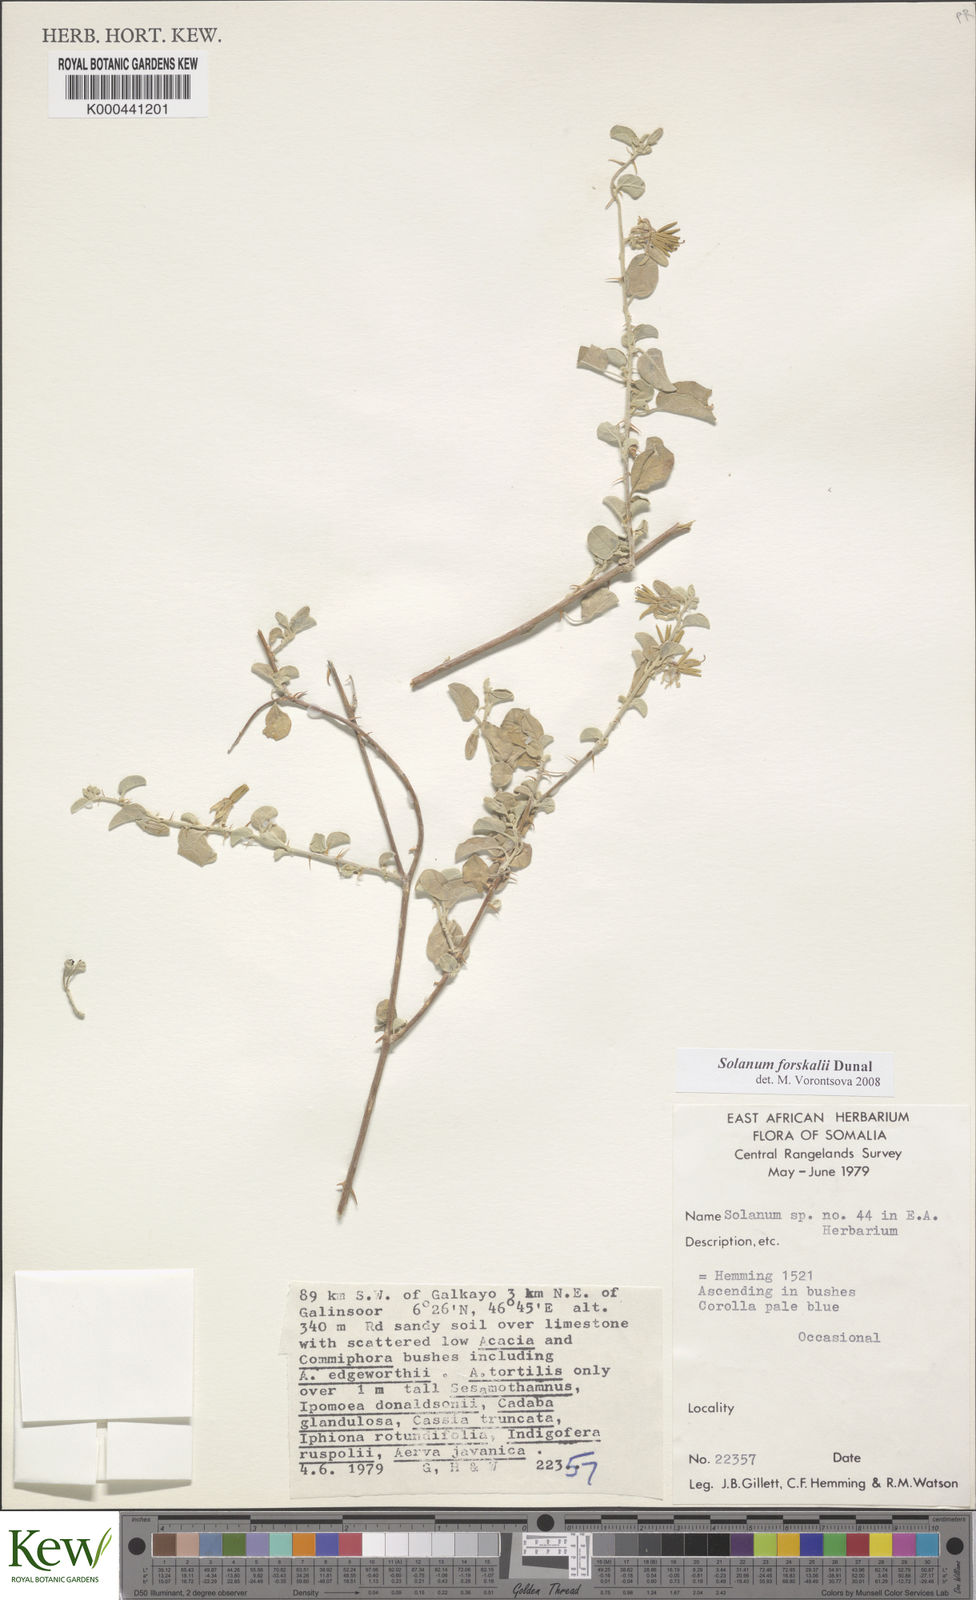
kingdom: Plantae
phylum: Tracheophyta
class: Magnoliopsida
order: Solanales
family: Solanaceae
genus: Solanum
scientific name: Solanum
